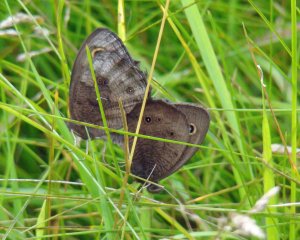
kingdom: Animalia
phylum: Arthropoda
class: Insecta
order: Lepidoptera
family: Nymphalidae
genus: Cercyonis
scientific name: Cercyonis pegala
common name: Common Wood-Nymph
